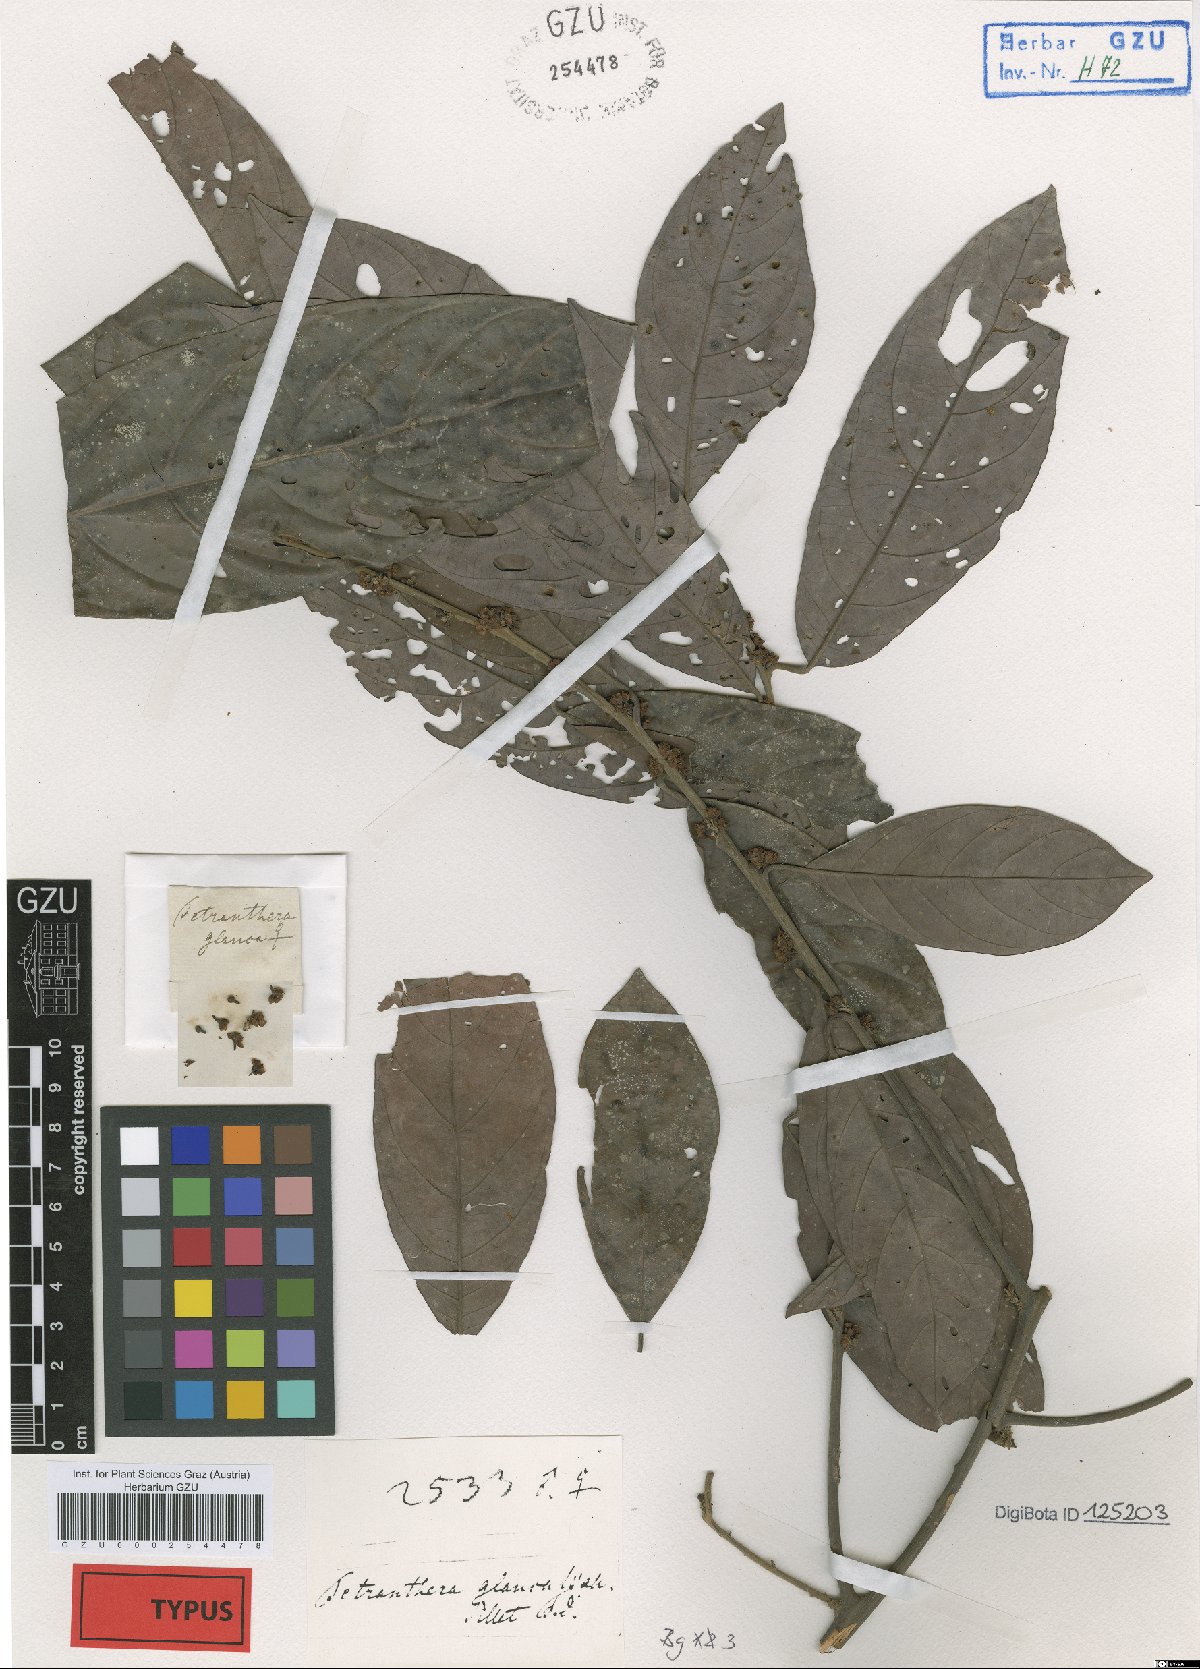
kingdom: Plantae
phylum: Tracheophyta
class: Magnoliopsida
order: Laurales
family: Lauraceae
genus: Litsea
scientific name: Litsea salicifolia
